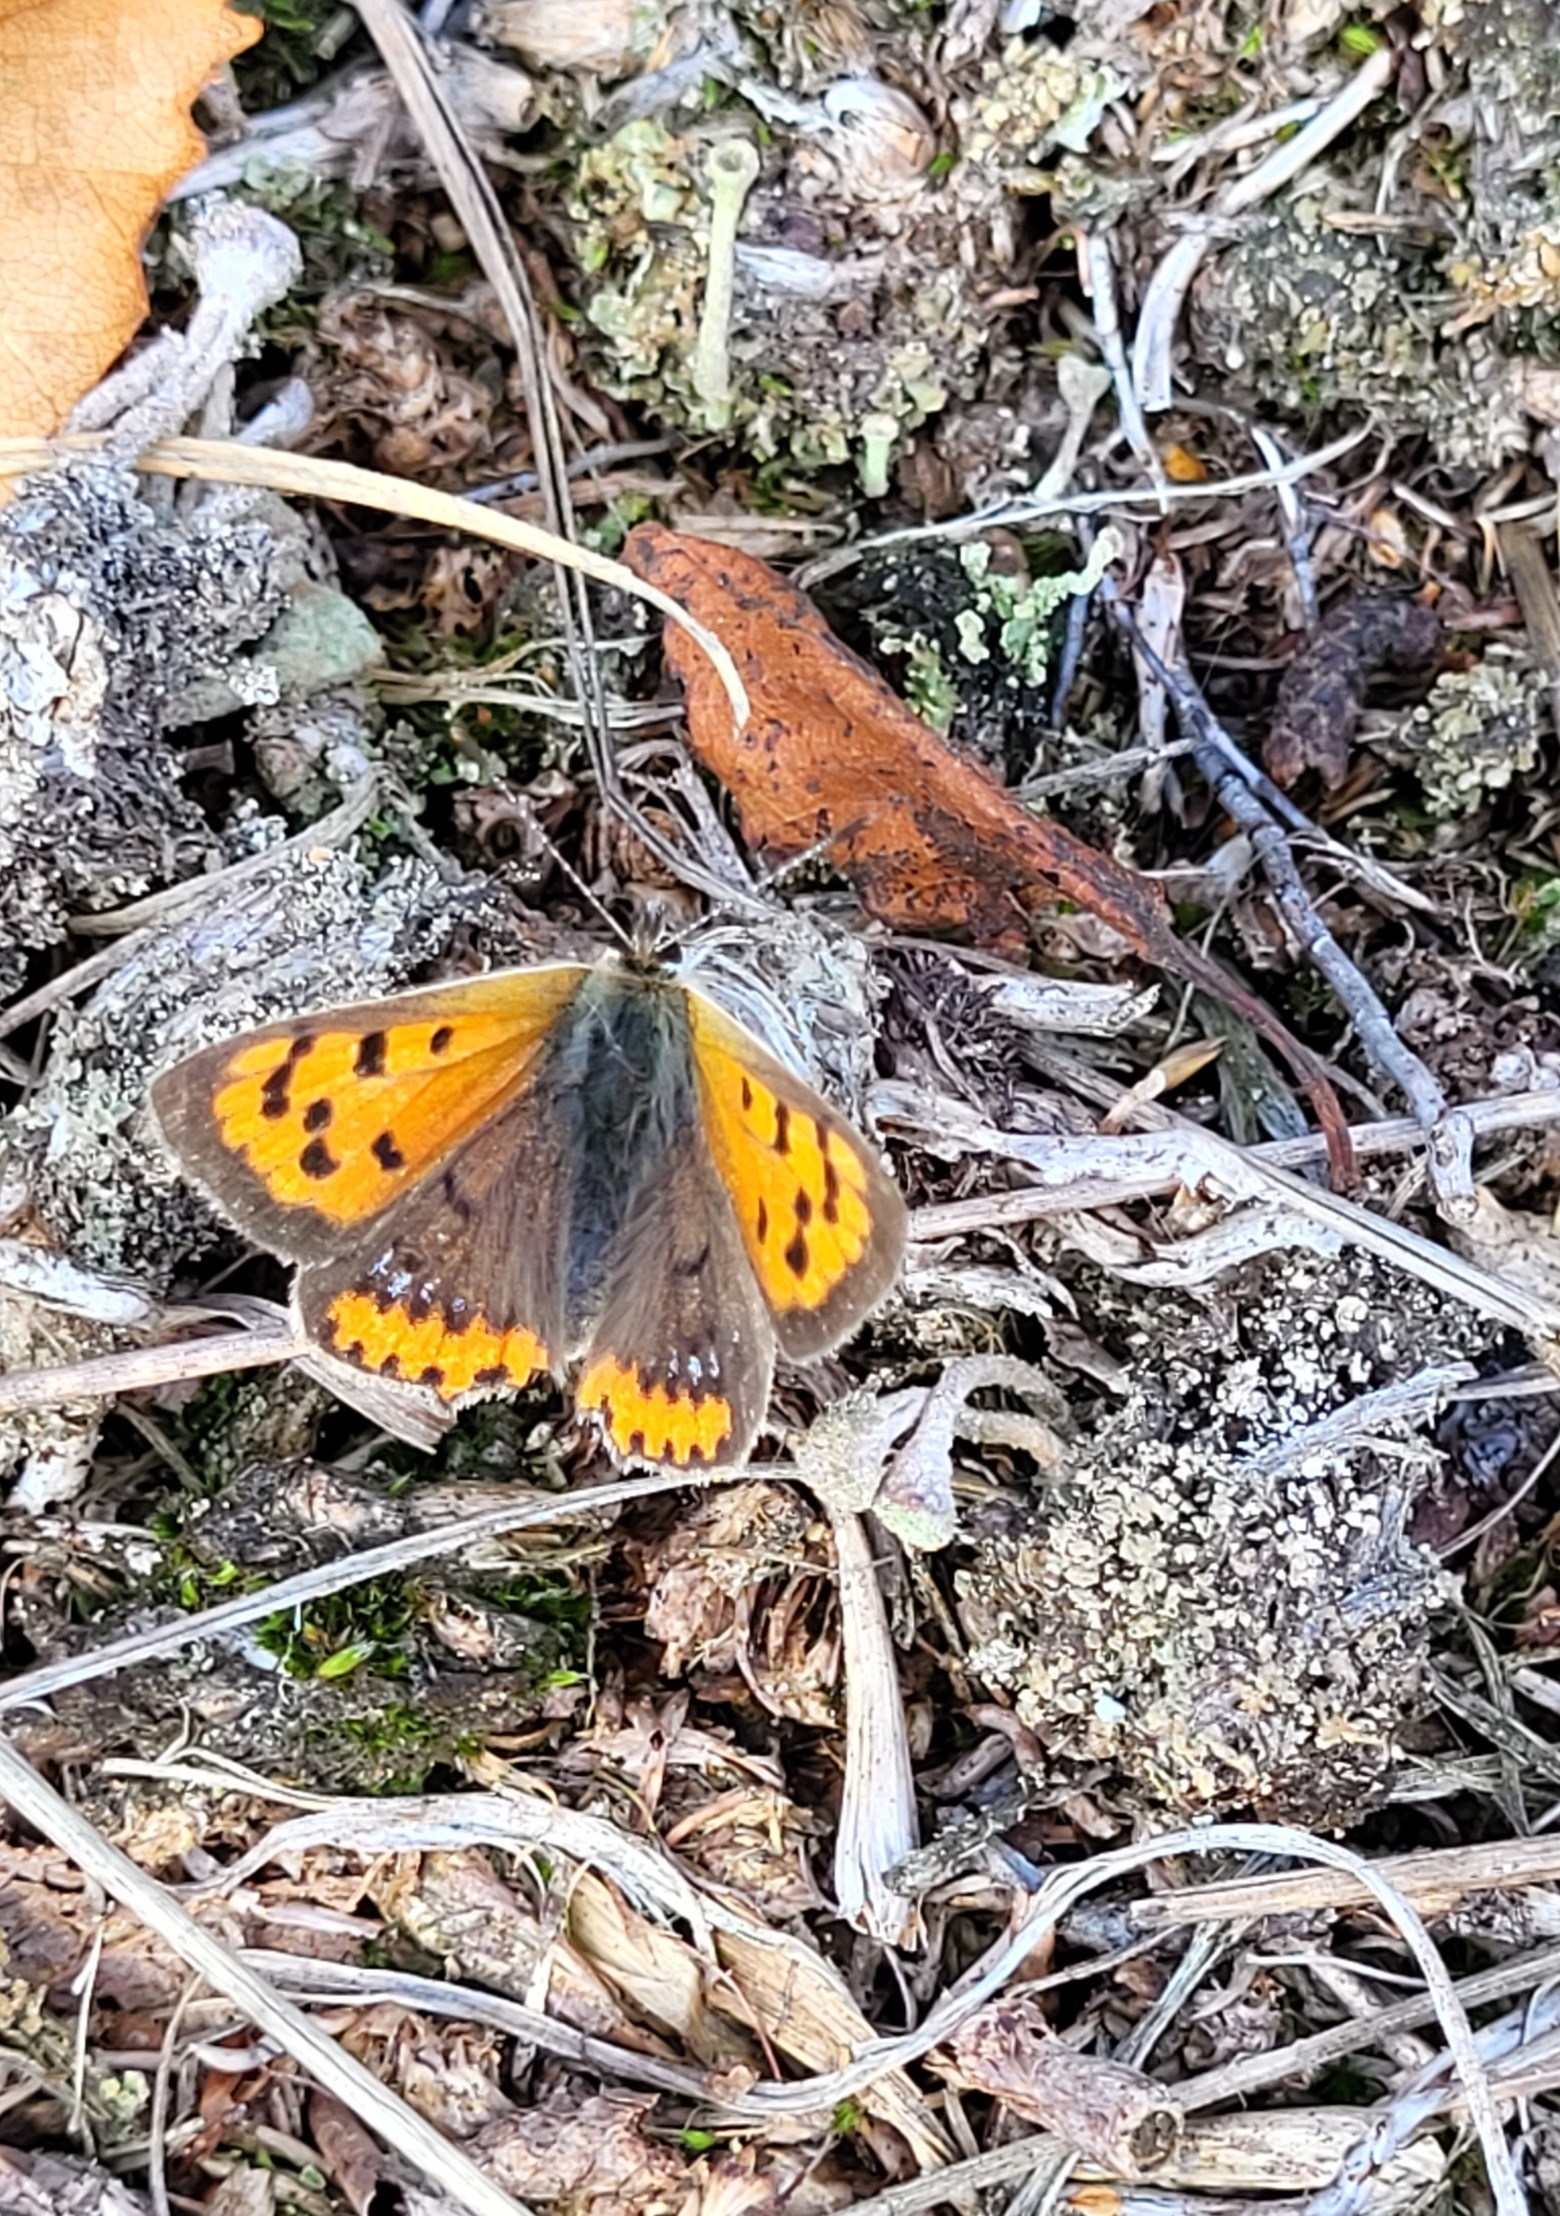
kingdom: Animalia
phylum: Arthropoda
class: Insecta
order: Lepidoptera
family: Lycaenidae
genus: Lycaena
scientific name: Lycaena phlaeas
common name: Lille ildfugl
